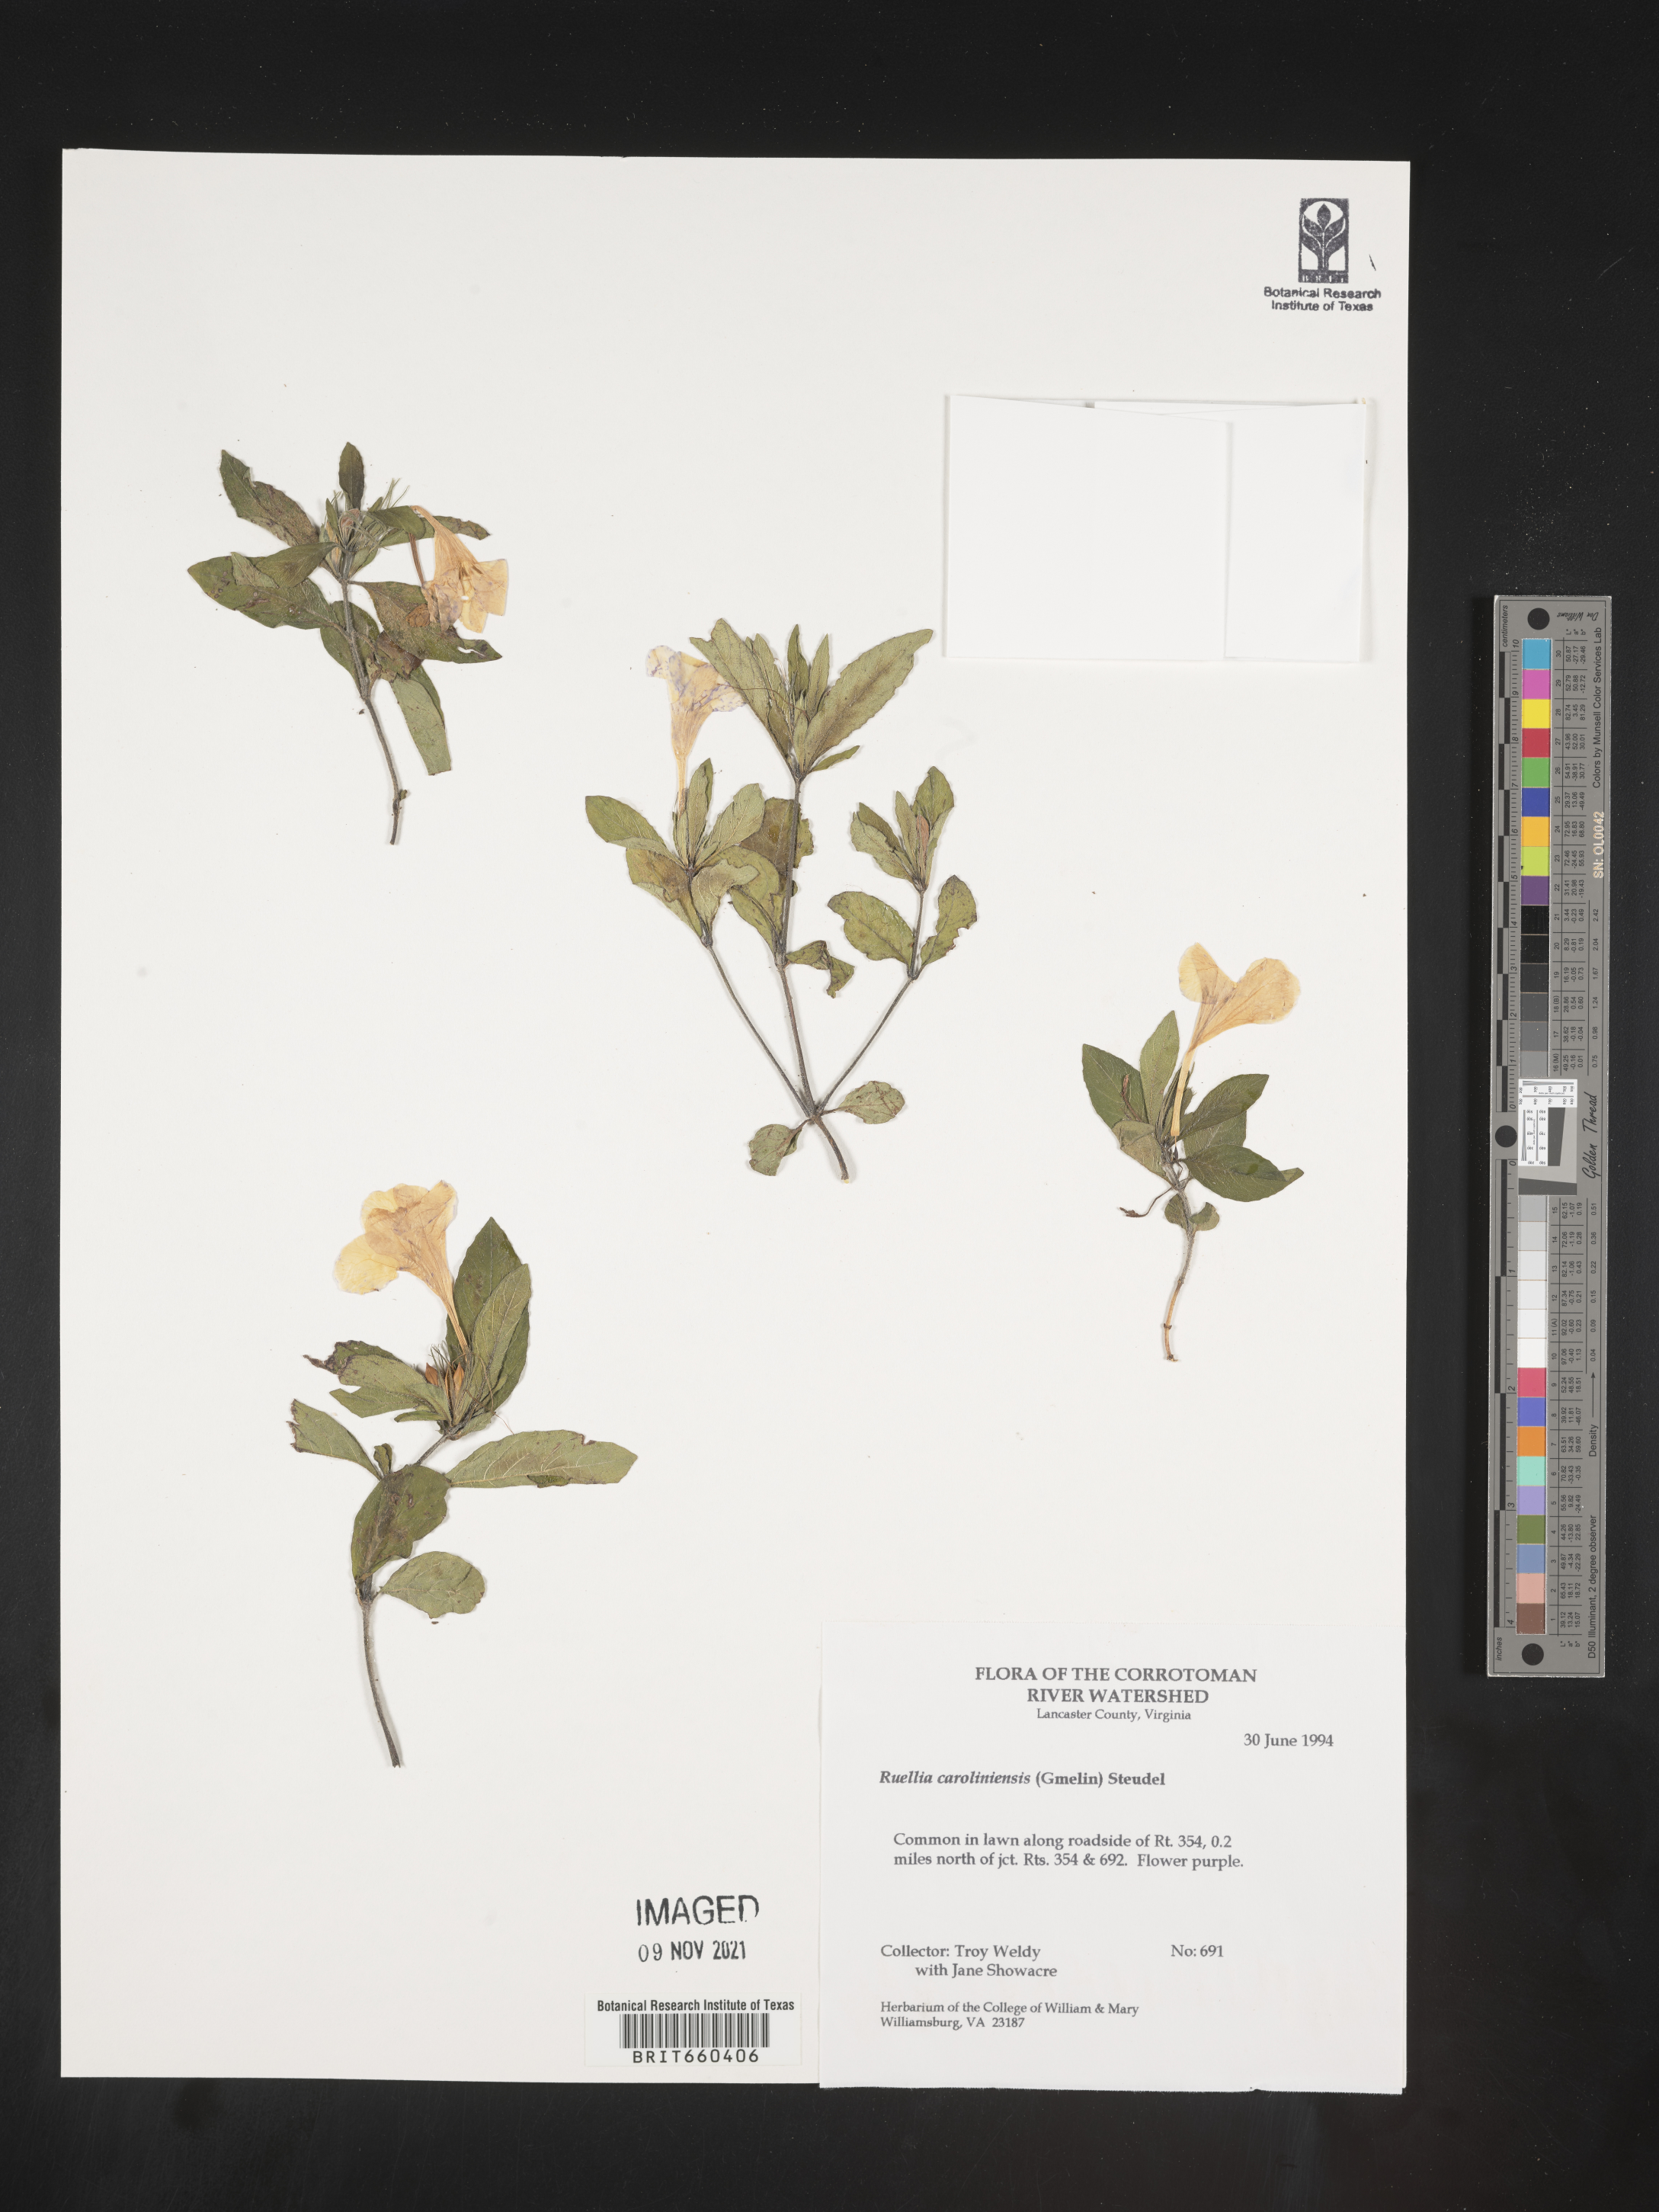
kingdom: Plantae
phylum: Tracheophyta
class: Magnoliopsida
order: Lamiales
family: Acanthaceae
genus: Ruellia
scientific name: Ruellia caroliniensis
